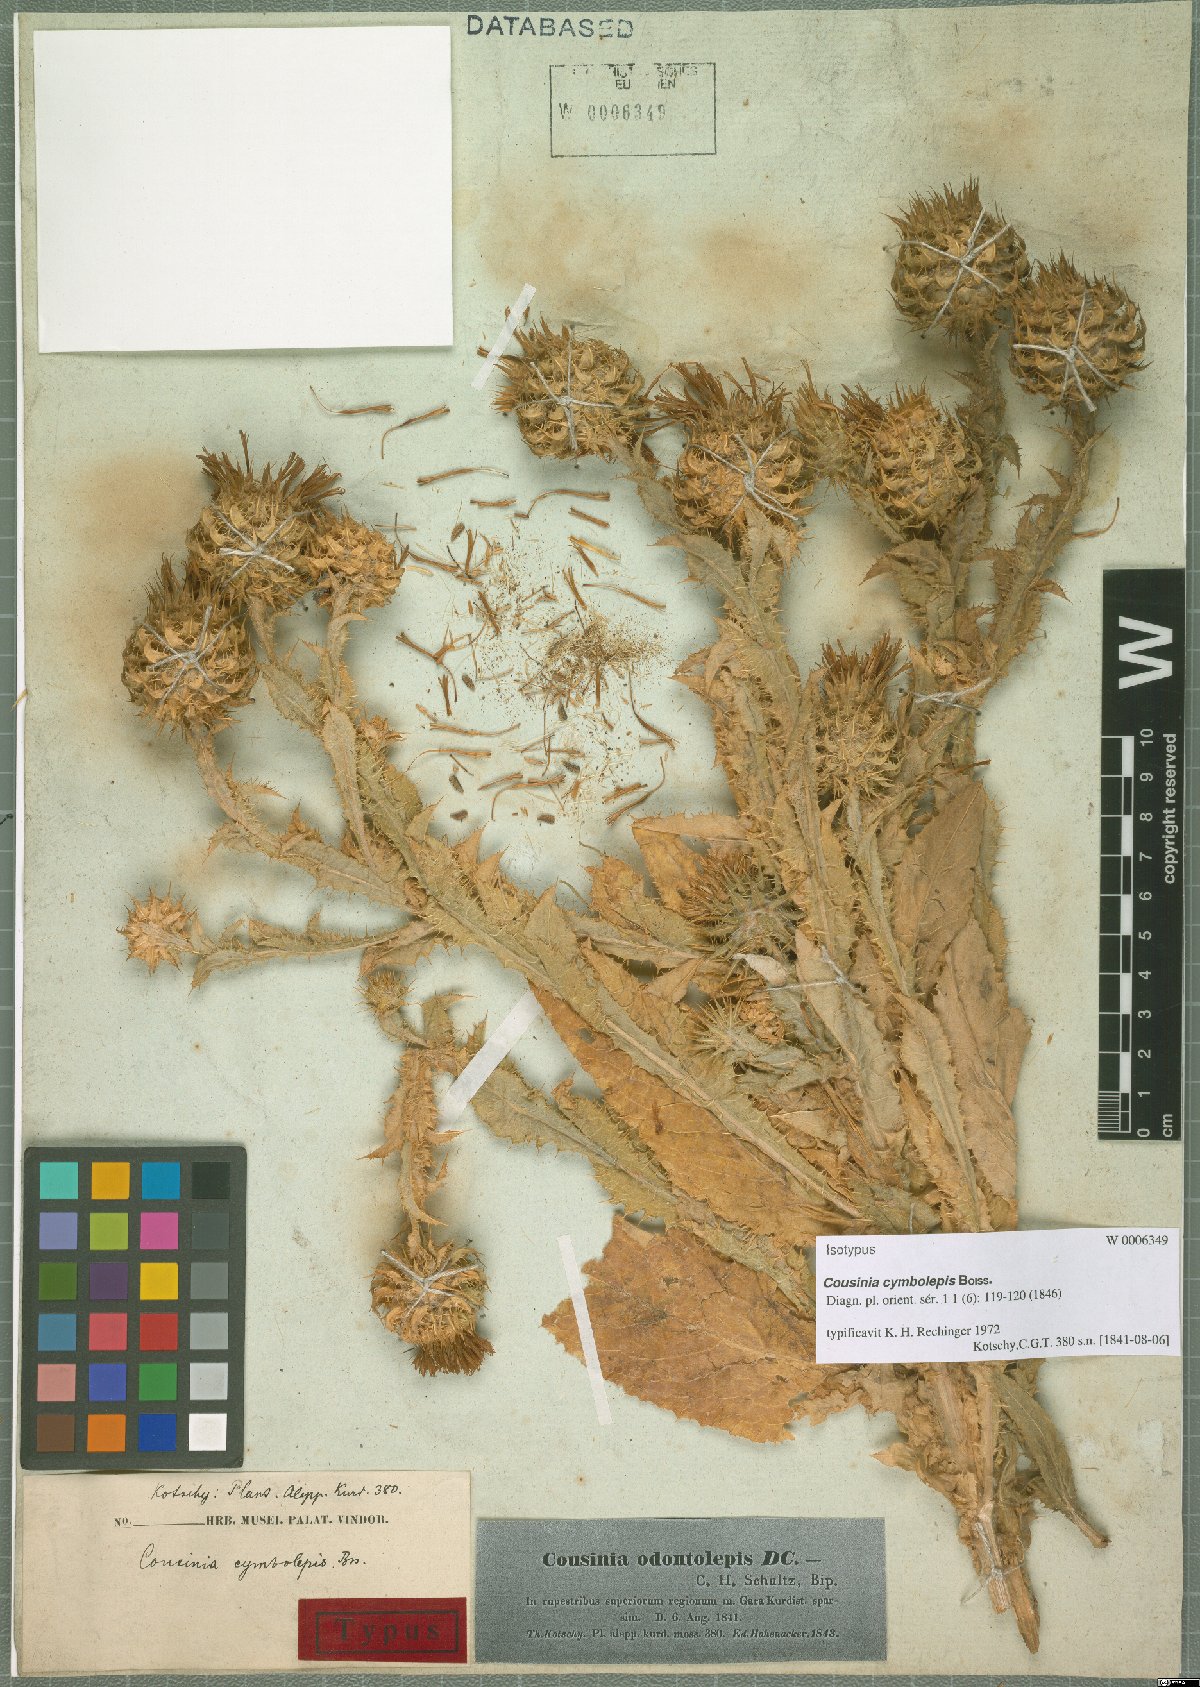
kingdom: Plantae
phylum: Tracheophyta
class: Magnoliopsida
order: Asterales
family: Asteraceae
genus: Cousinia
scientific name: Cousinia odontolepis
